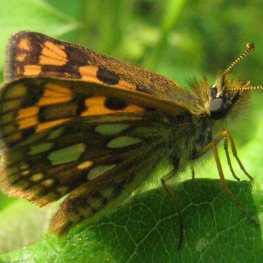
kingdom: Animalia
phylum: Arthropoda
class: Insecta
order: Lepidoptera
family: Hesperiidae
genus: Carterocephalus
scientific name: Carterocephalus palaemon
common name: Chequered Skipper
